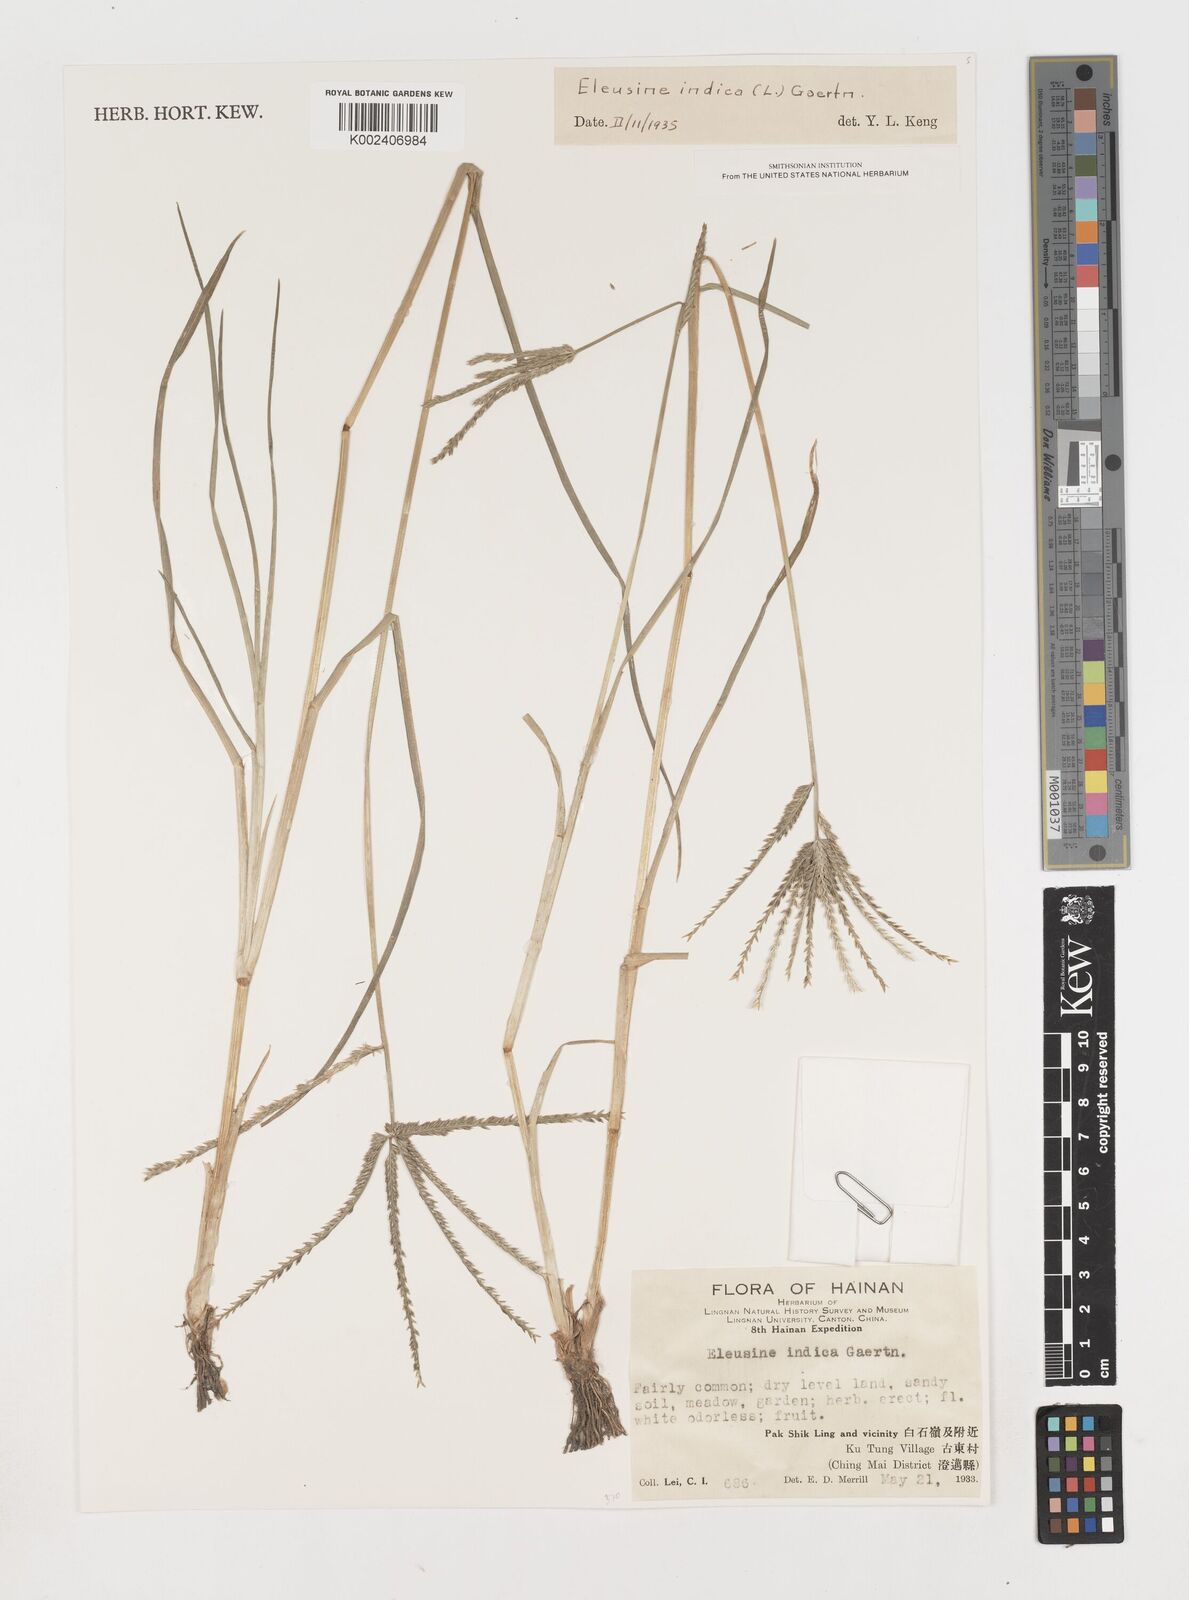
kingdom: Plantae
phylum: Tracheophyta
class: Liliopsida
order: Poales
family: Poaceae
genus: Eleusine
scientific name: Eleusine indica
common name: Yard-grass
